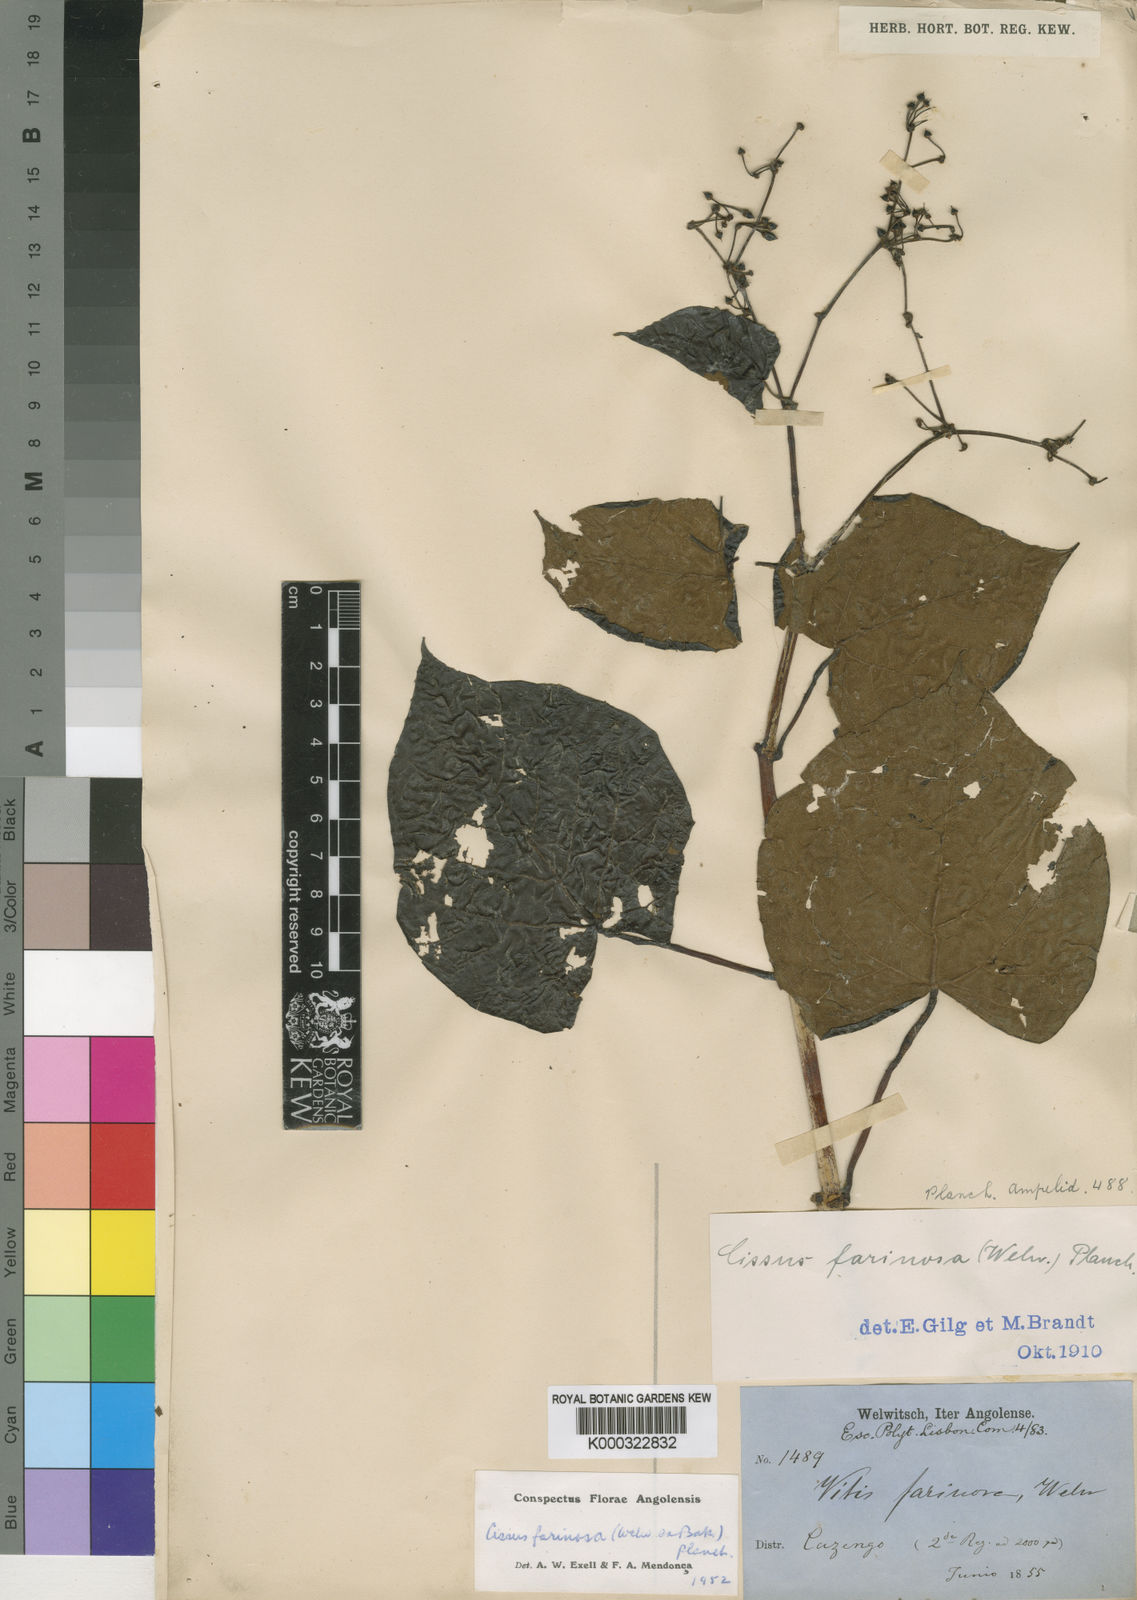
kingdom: Plantae
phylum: Tracheophyta
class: Magnoliopsida
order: Vitales
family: Vitaceae
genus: Cissus
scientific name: Cissus farinosa
